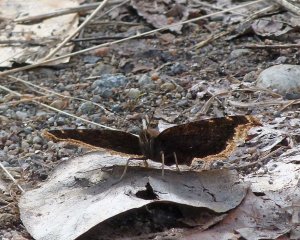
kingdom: Animalia
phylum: Arthropoda
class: Insecta
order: Lepidoptera
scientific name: Lepidoptera
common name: Butterflies
